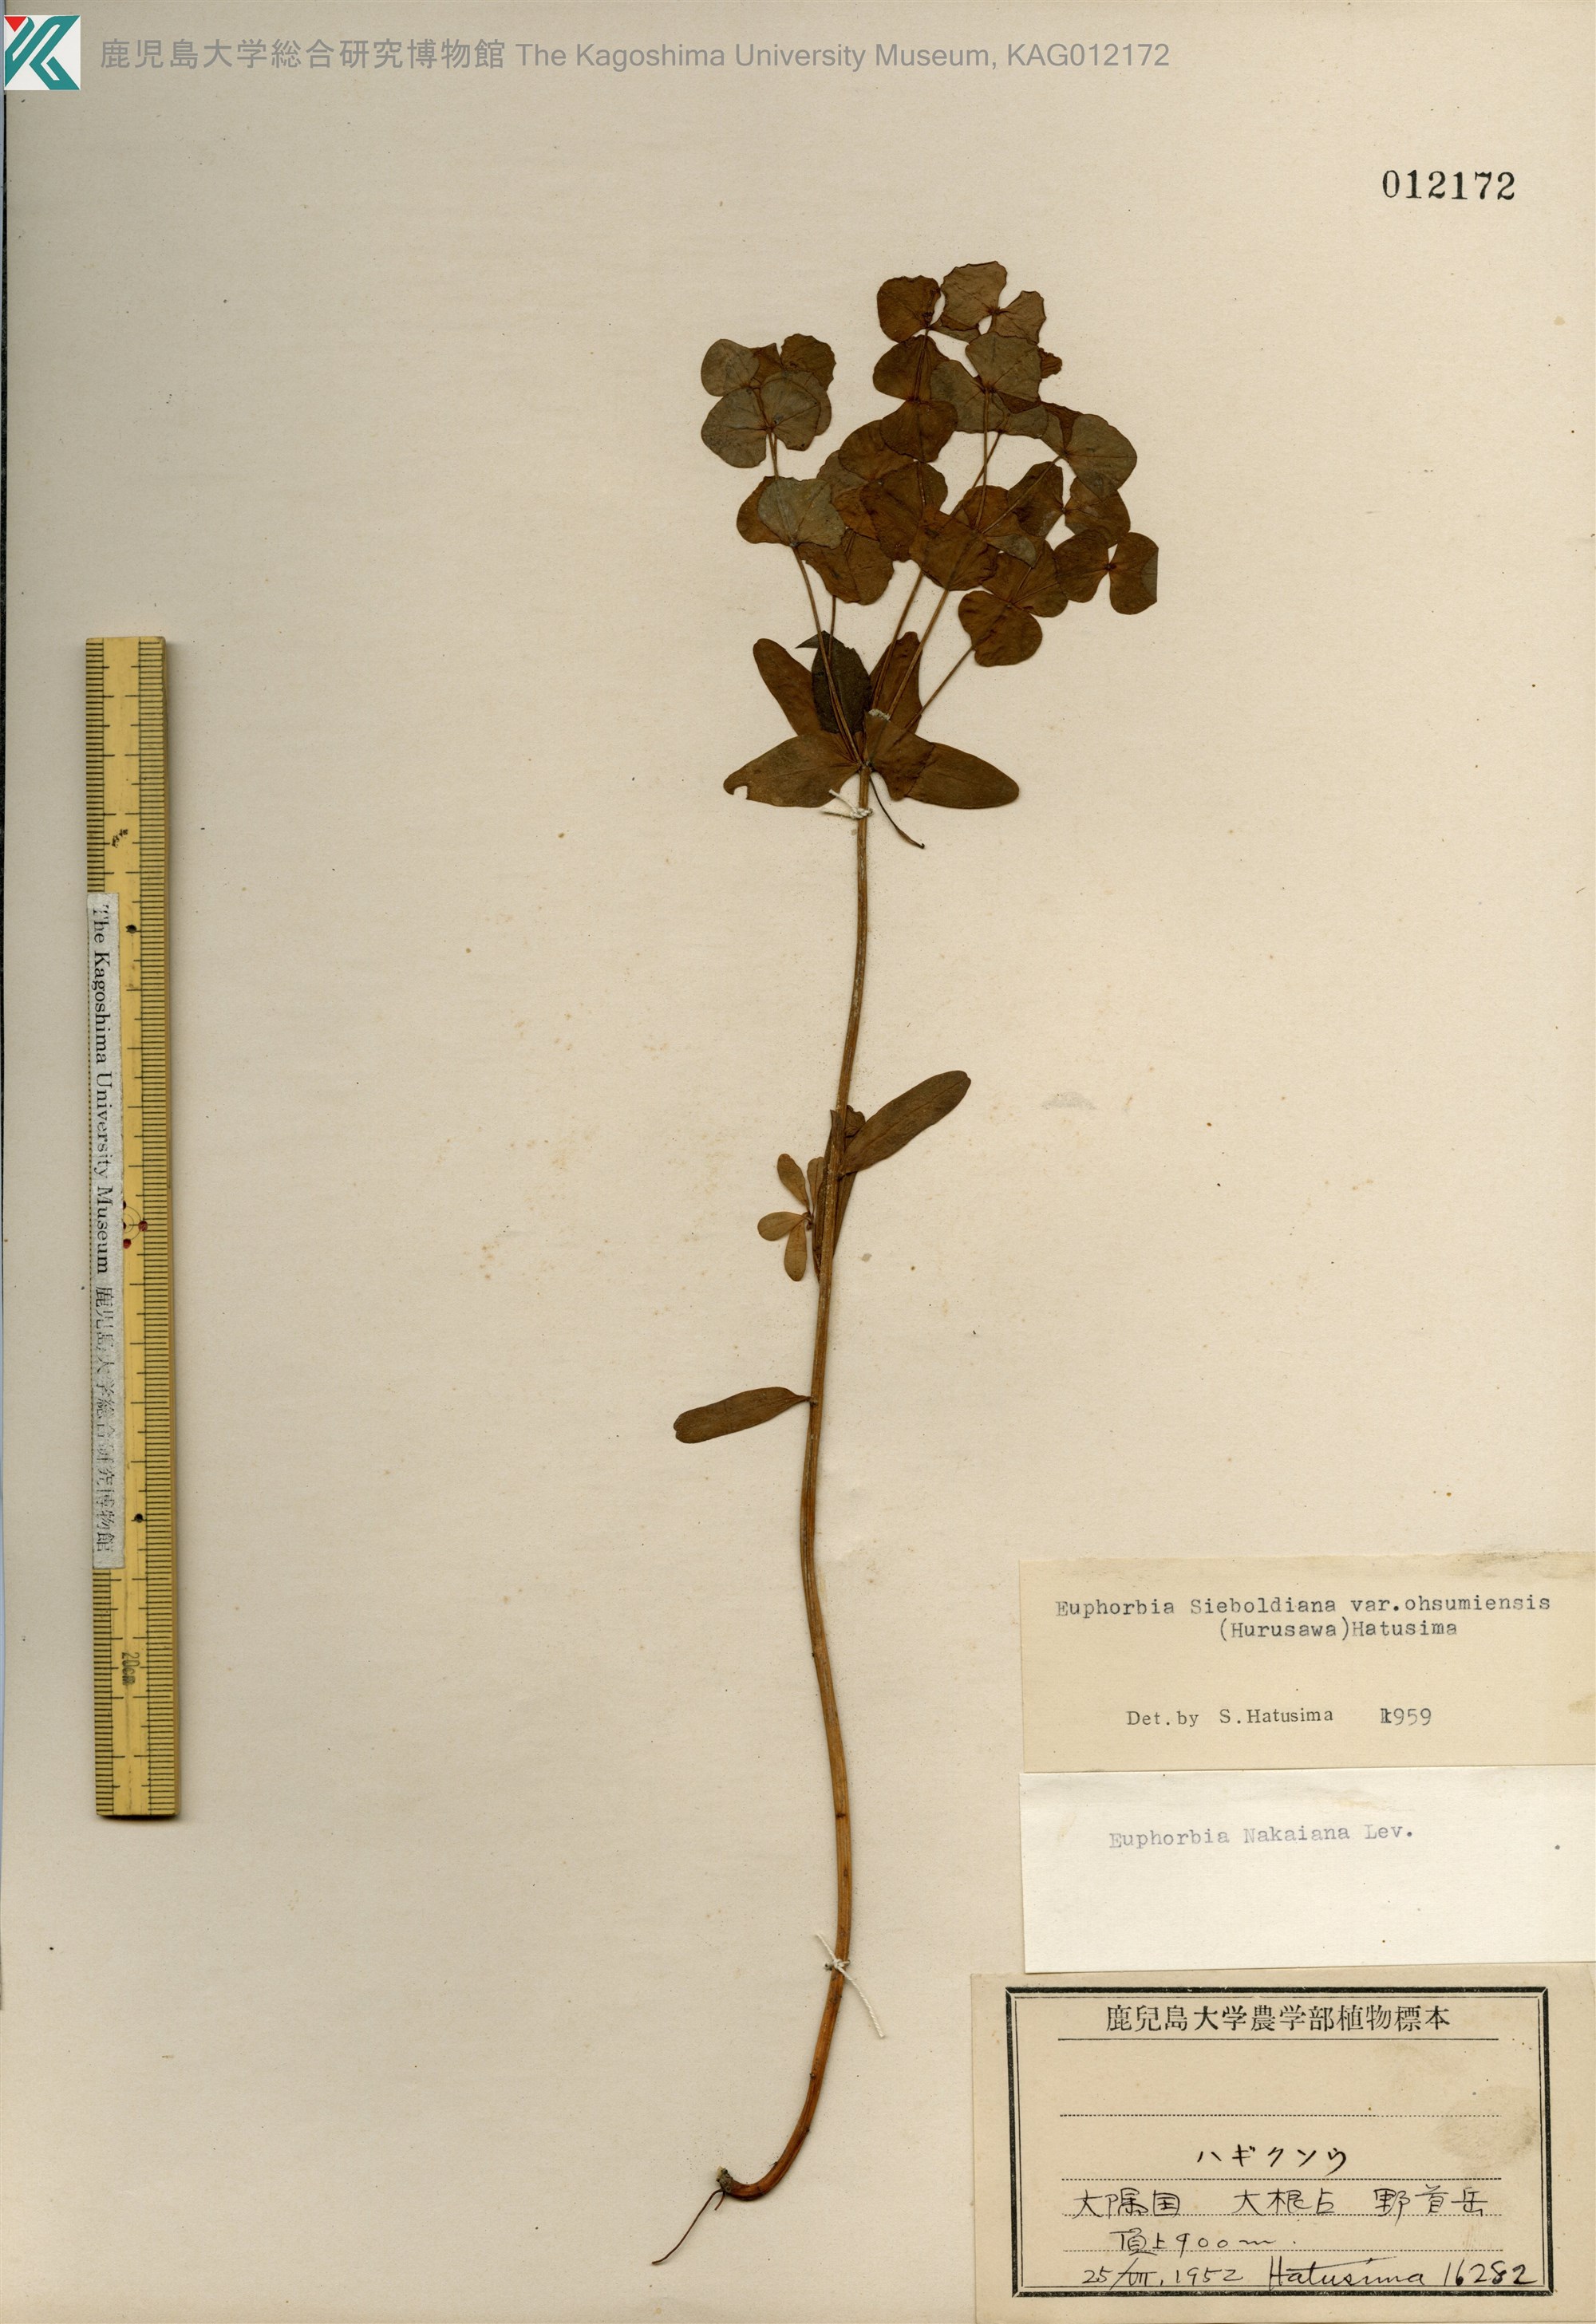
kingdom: Plantae
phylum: Tracheophyta
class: Magnoliopsida
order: Malpighiales
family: Euphorbiaceae
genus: Euphorbia
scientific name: Euphorbia sieboldiana
